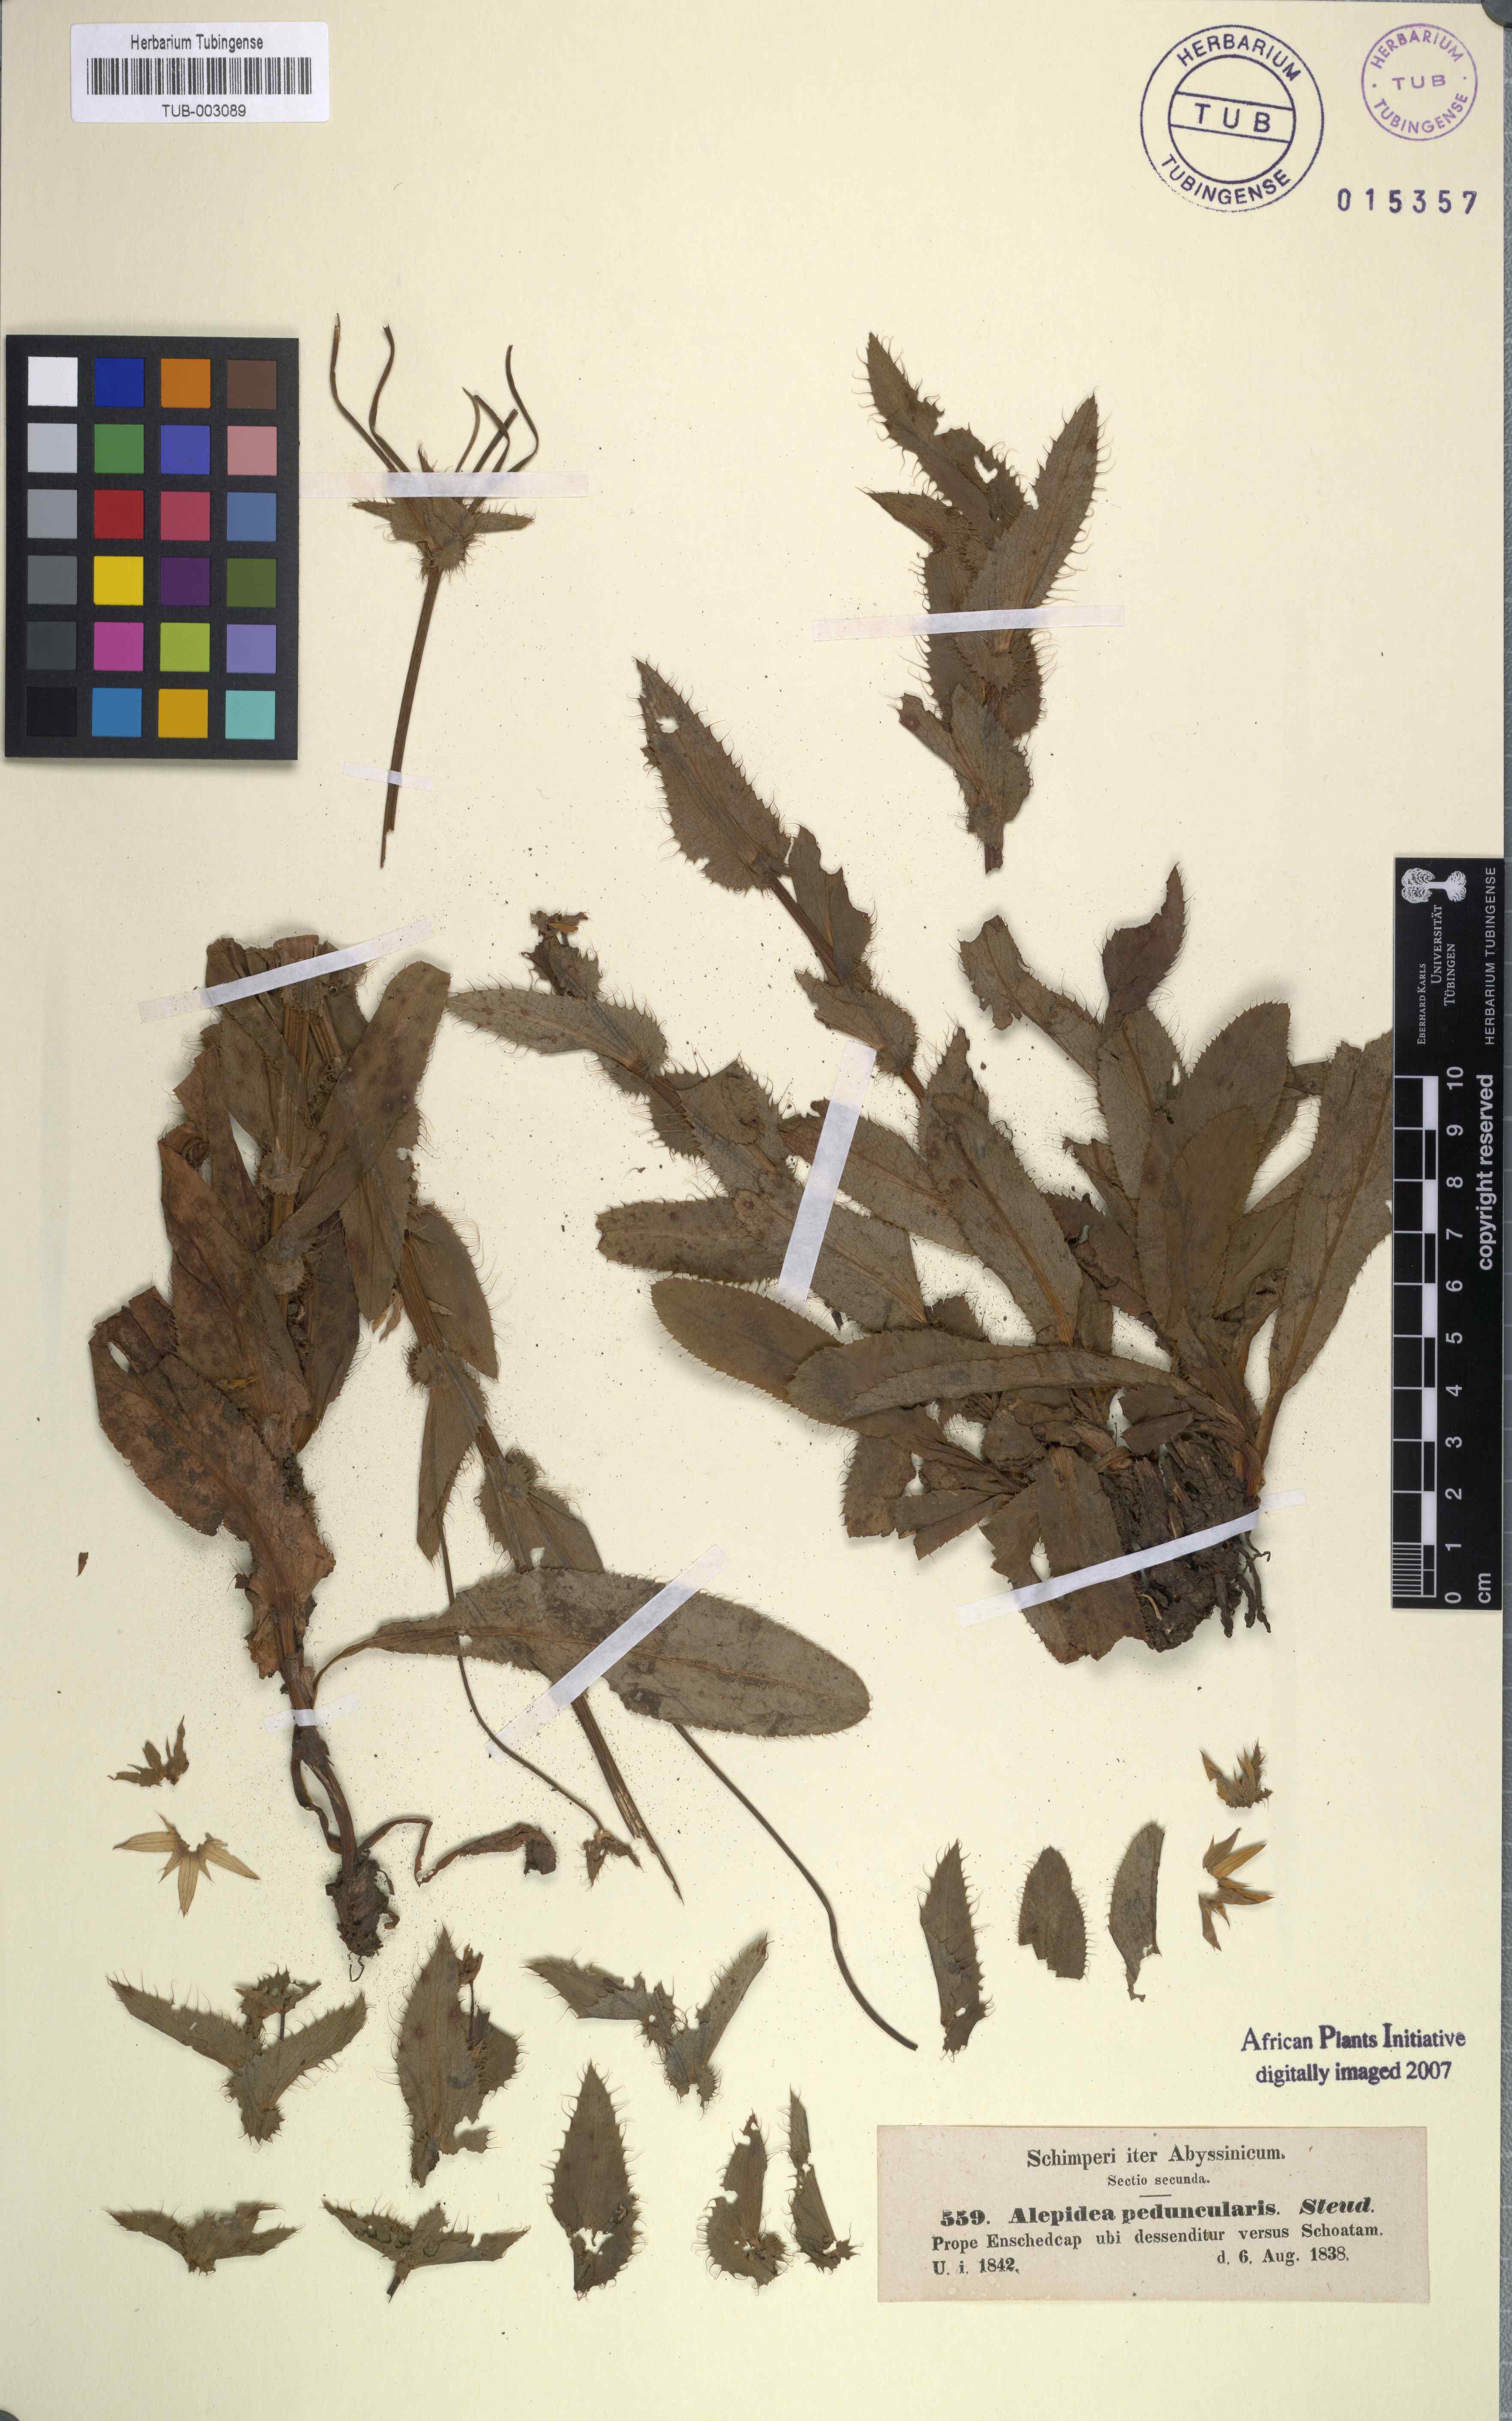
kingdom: Plantae
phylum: Tracheophyta
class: Magnoliopsida
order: Apiales
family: Apiaceae
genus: Alepidea
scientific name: Alepidea peduncularis
